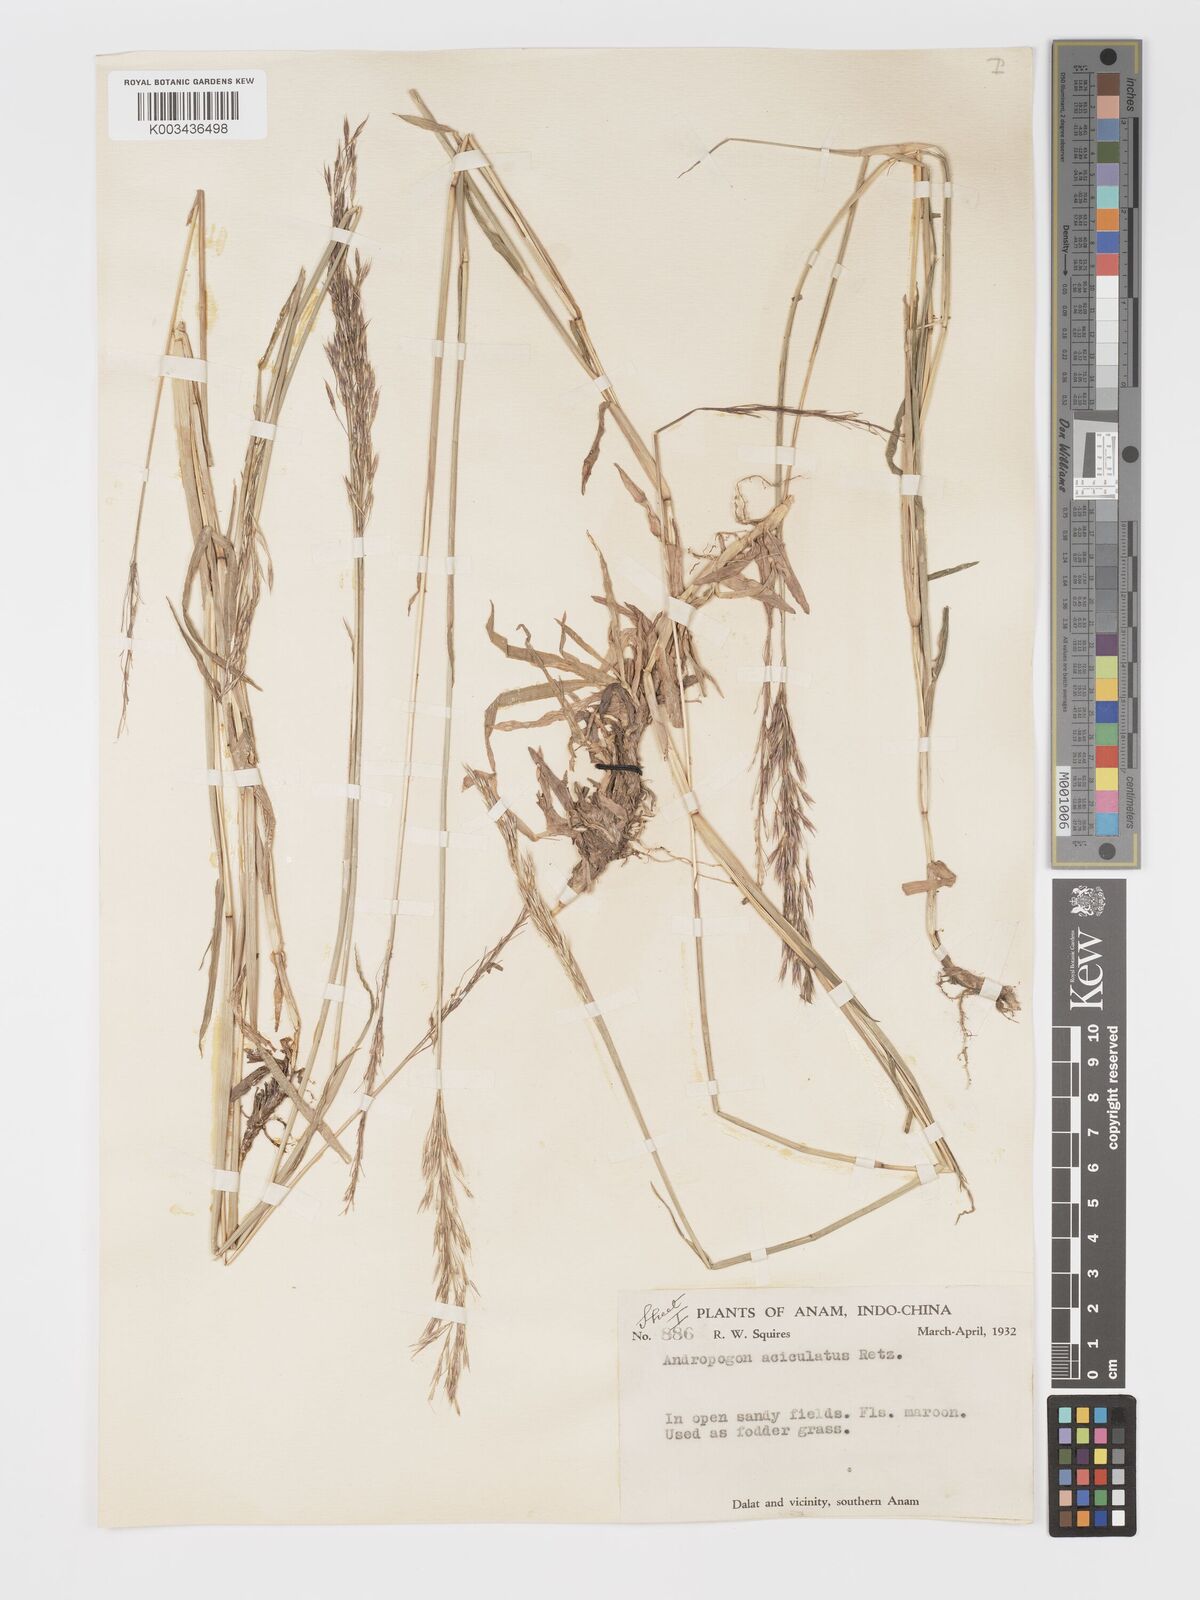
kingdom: Plantae
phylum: Tracheophyta
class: Liliopsida
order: Poales
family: Poaceae
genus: Chrysopogon
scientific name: Chrysopogon aciculatus
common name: Pilipiliula
